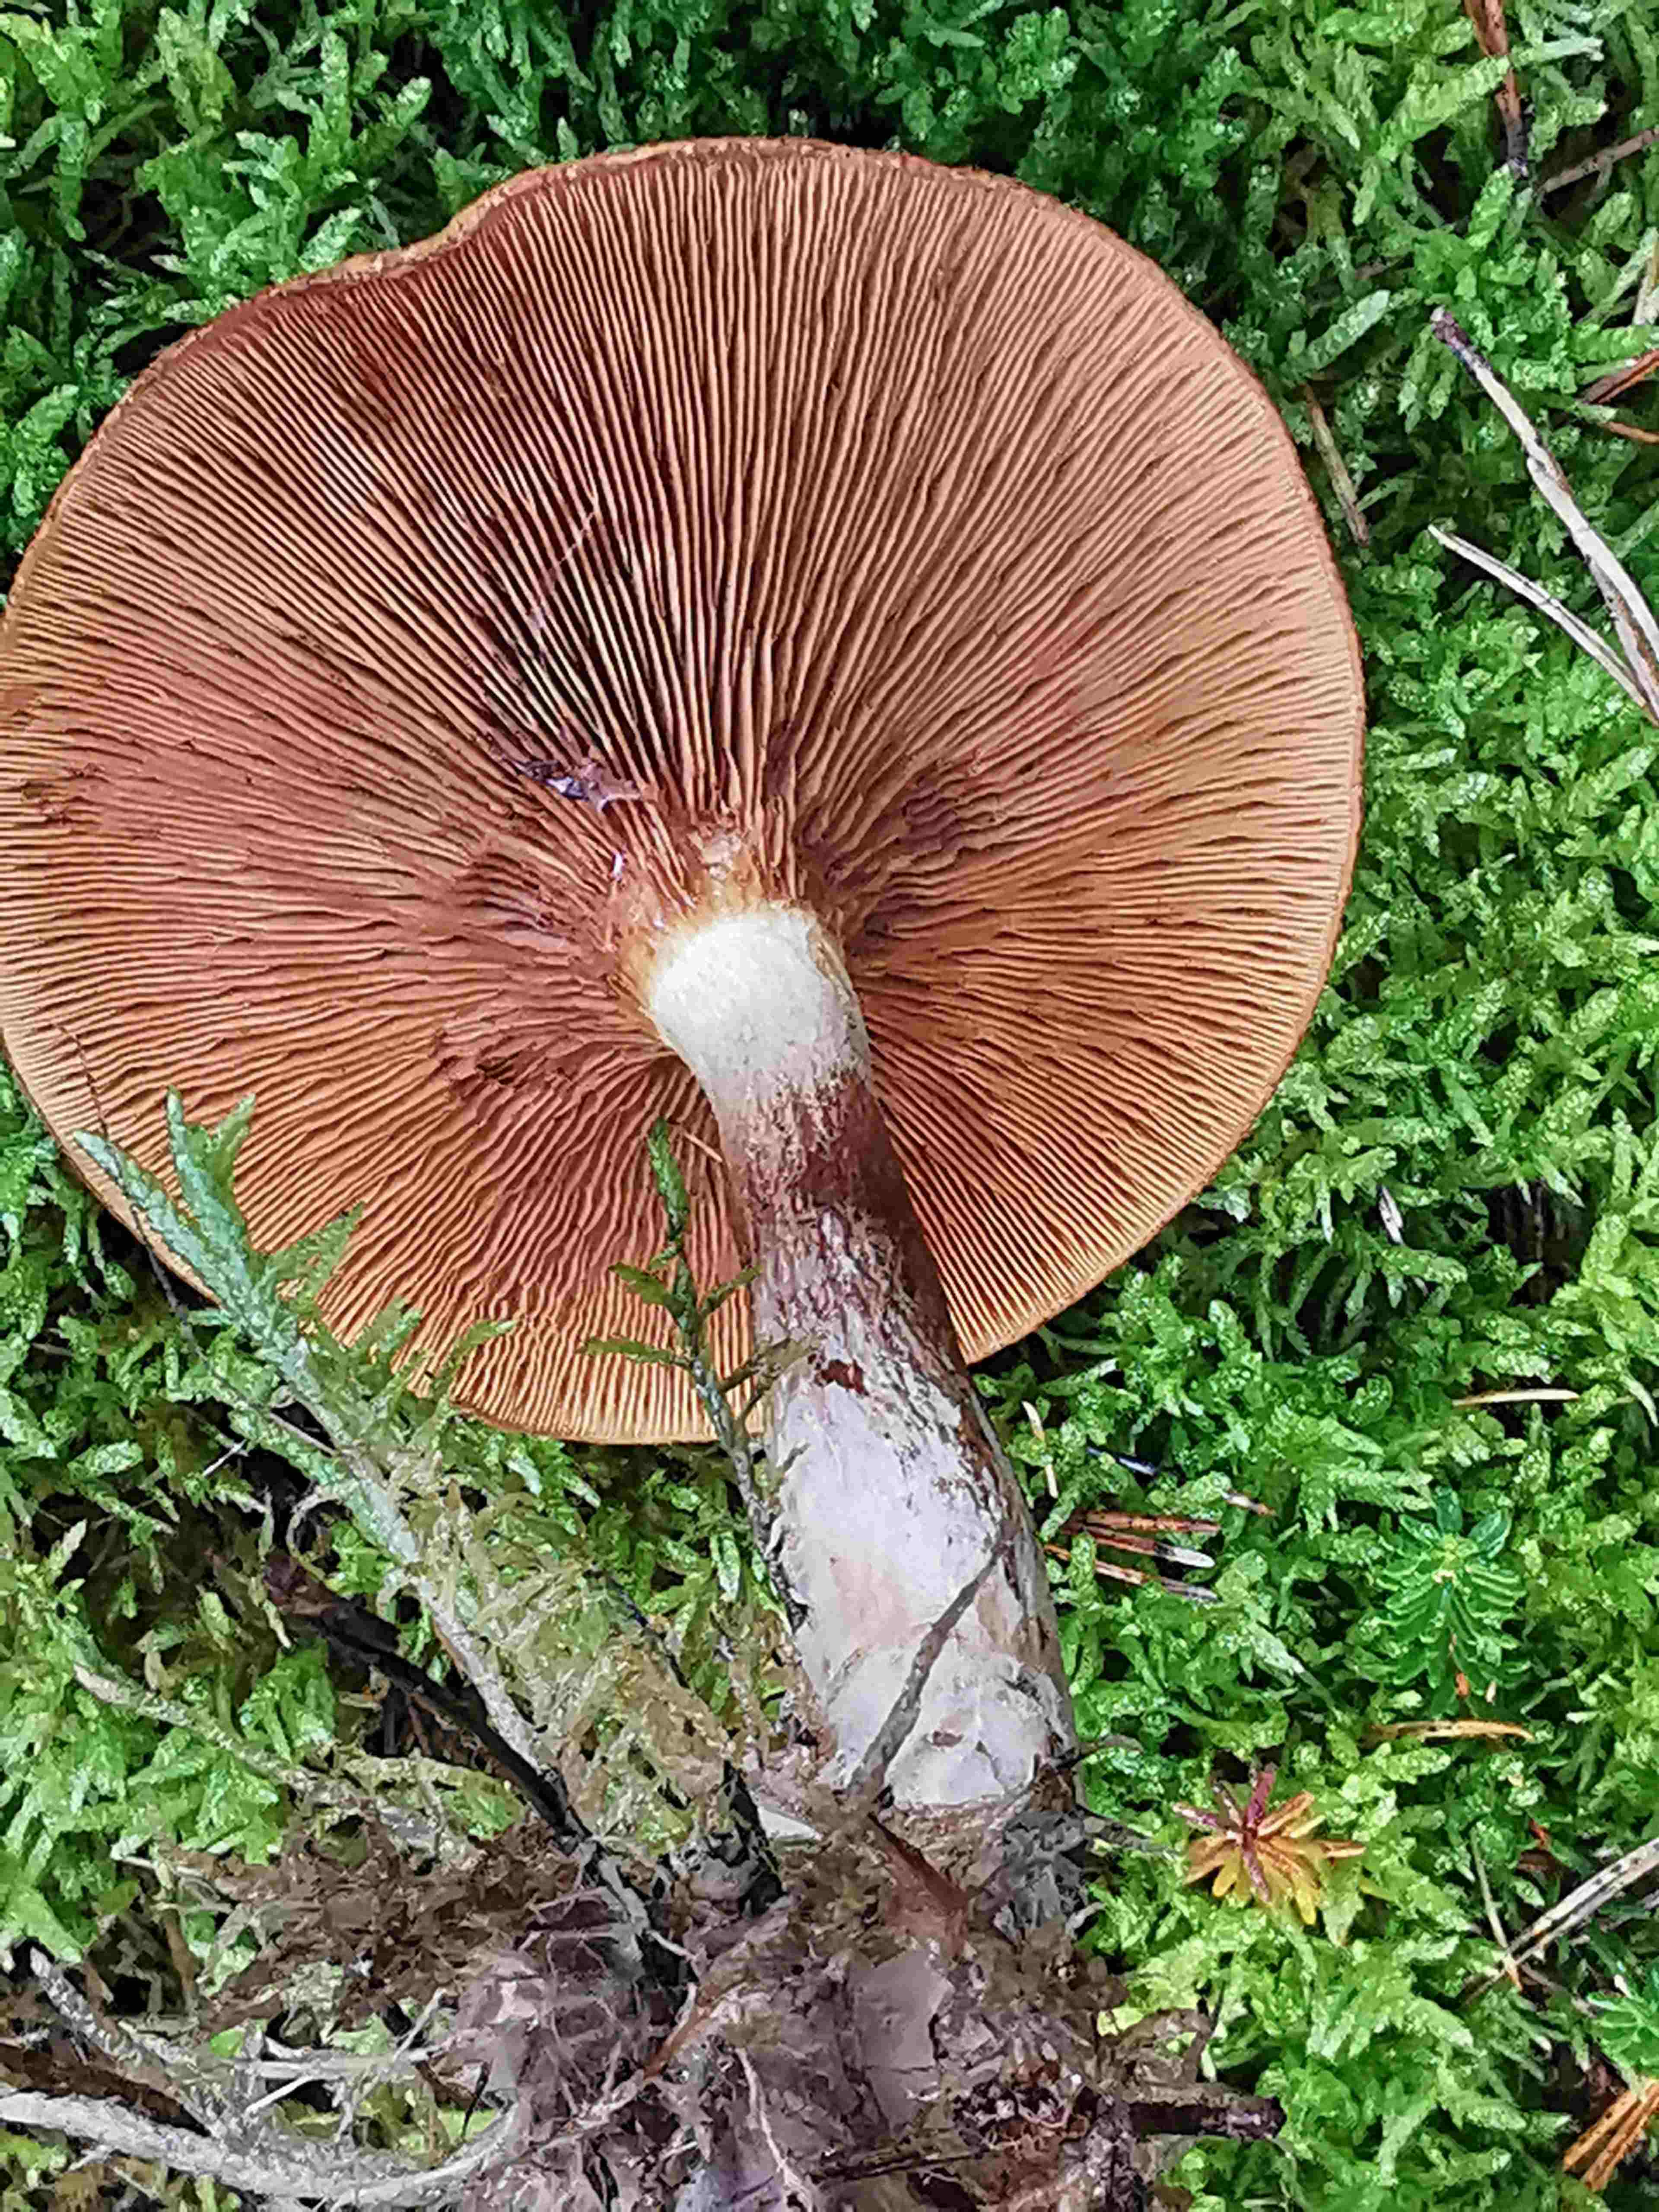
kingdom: Fungi
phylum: Basidiomycota
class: Agaricomycetes
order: Boletales
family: Paxillaceae
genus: Paxillus
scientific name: Paxillus involutus
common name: almindelig netbladhat
